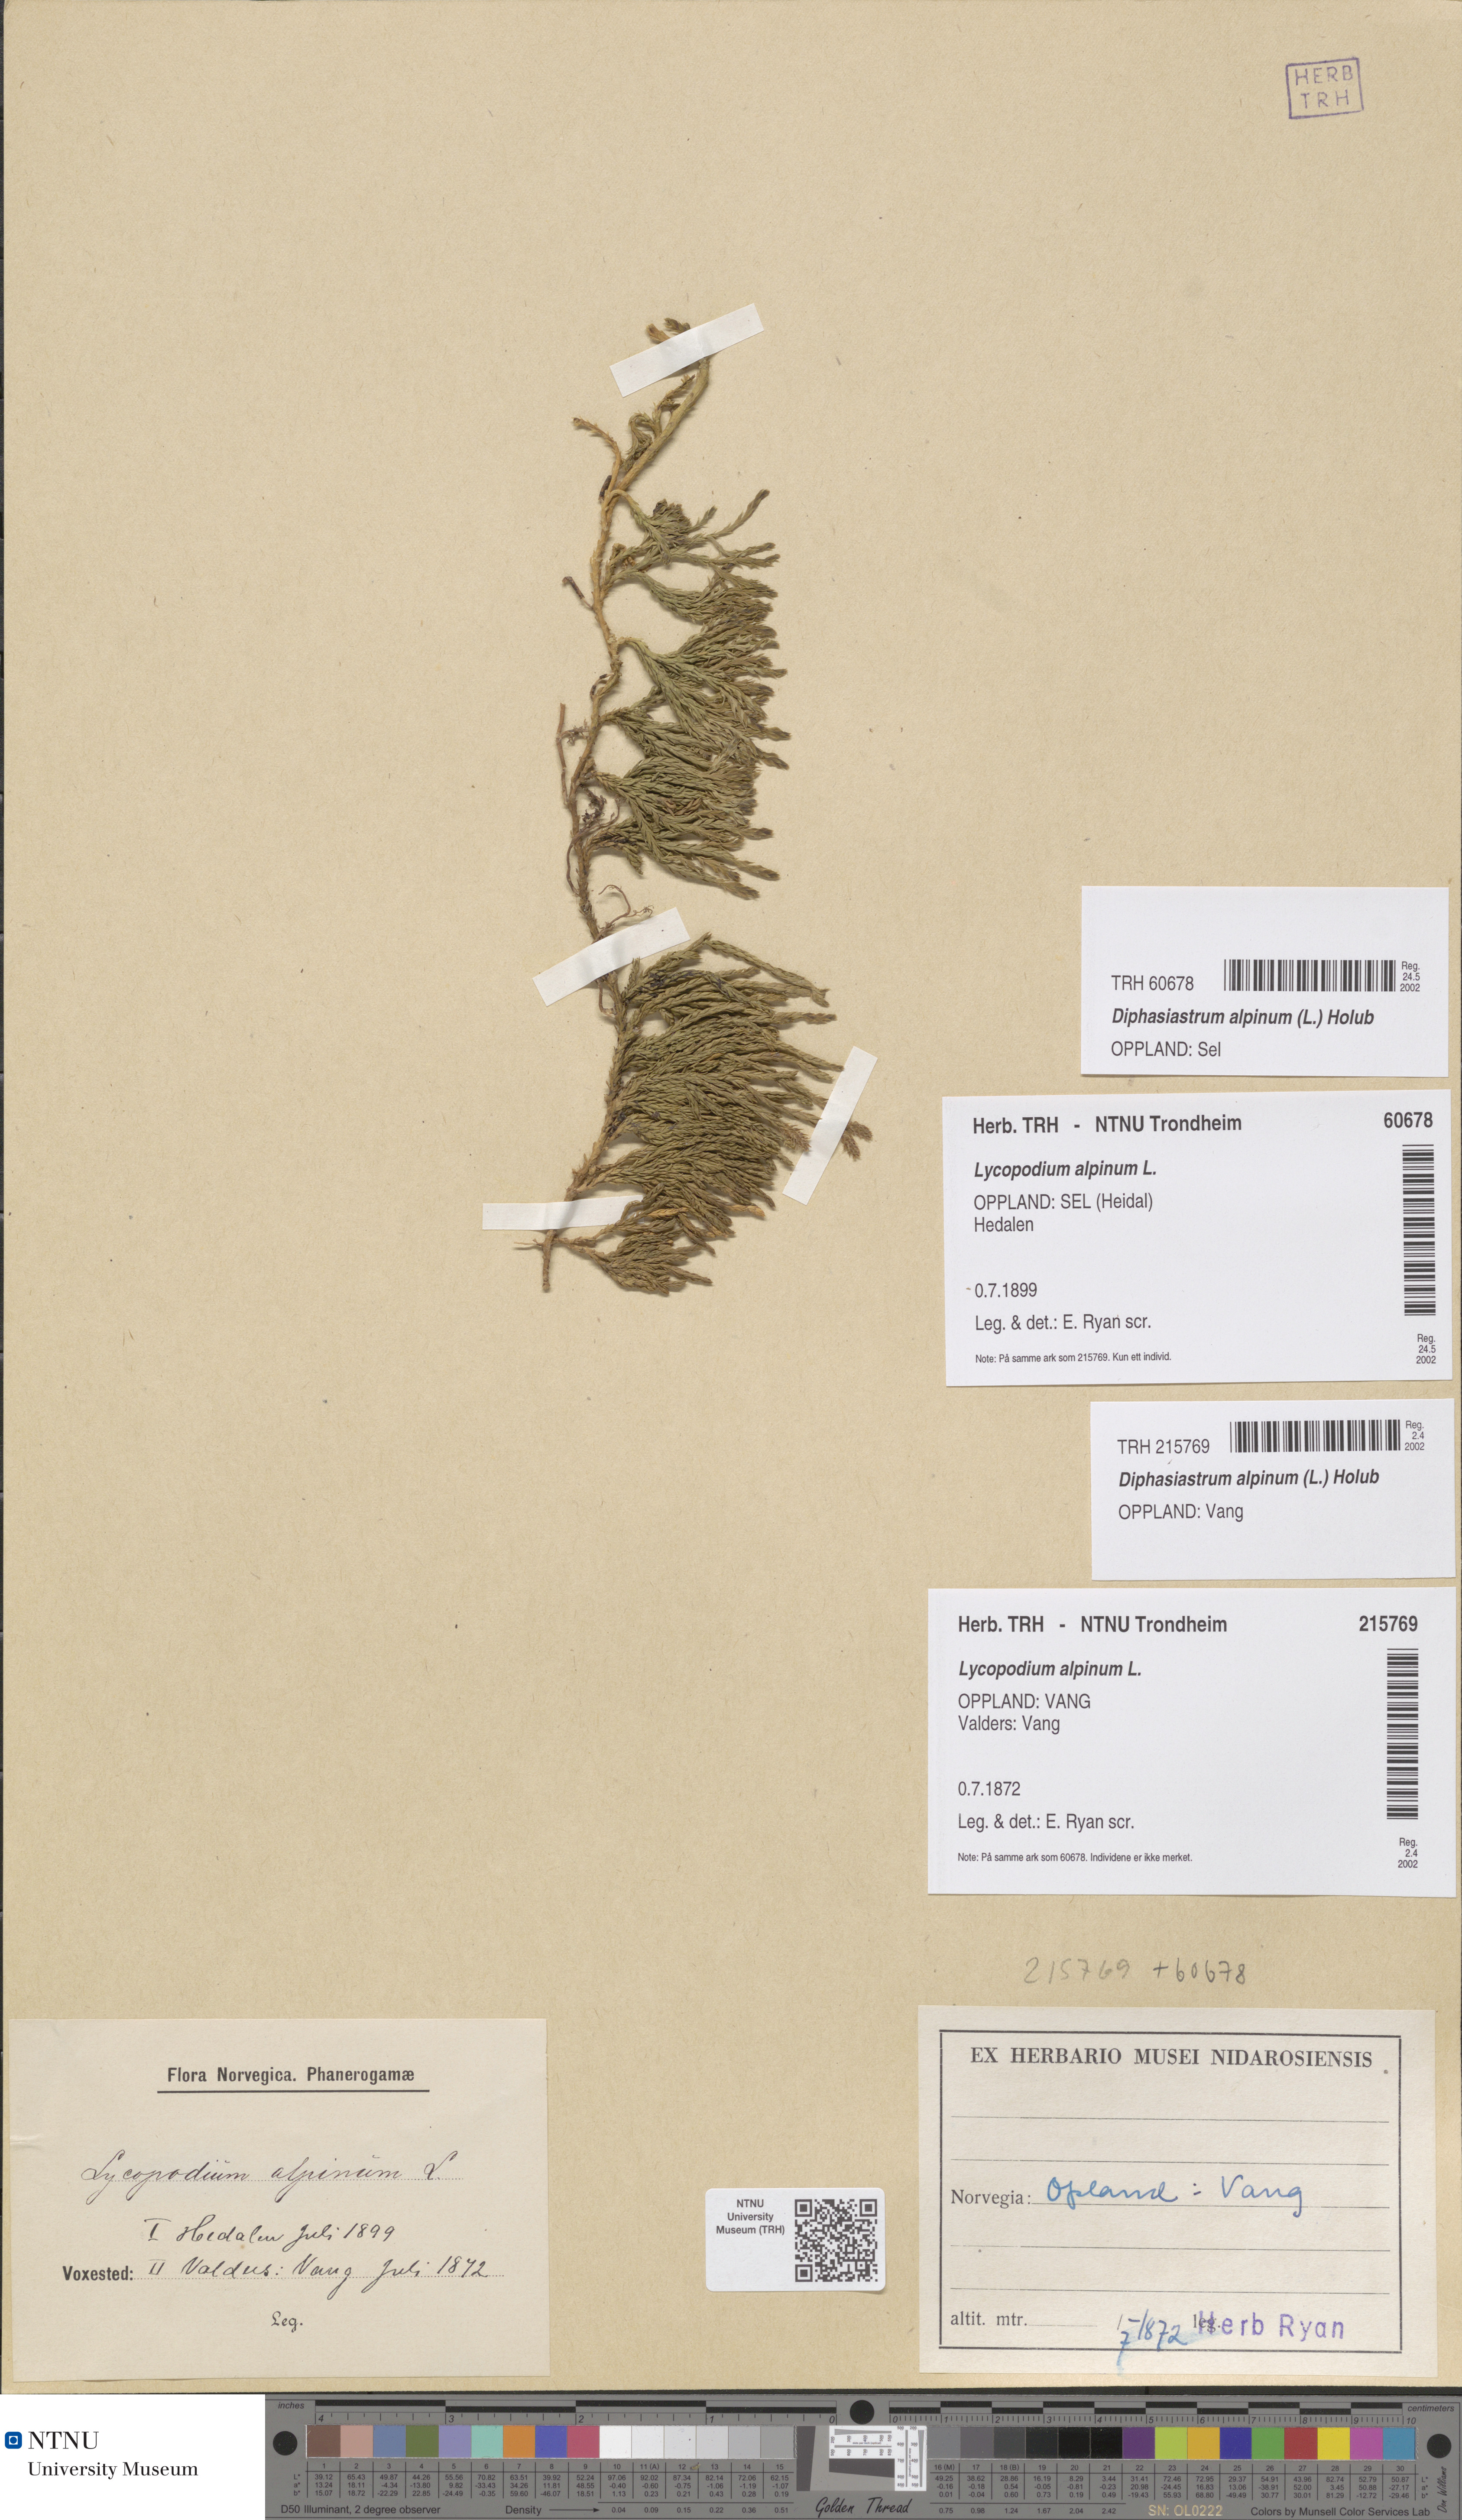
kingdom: Plantae
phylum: Tracheophyta
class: Lycopodiopsida
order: Lycopodiales
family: Lycopodiaceae
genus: Diphasiastrum
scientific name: Diphasiastrum alpinum
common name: Alpine clubmoss
